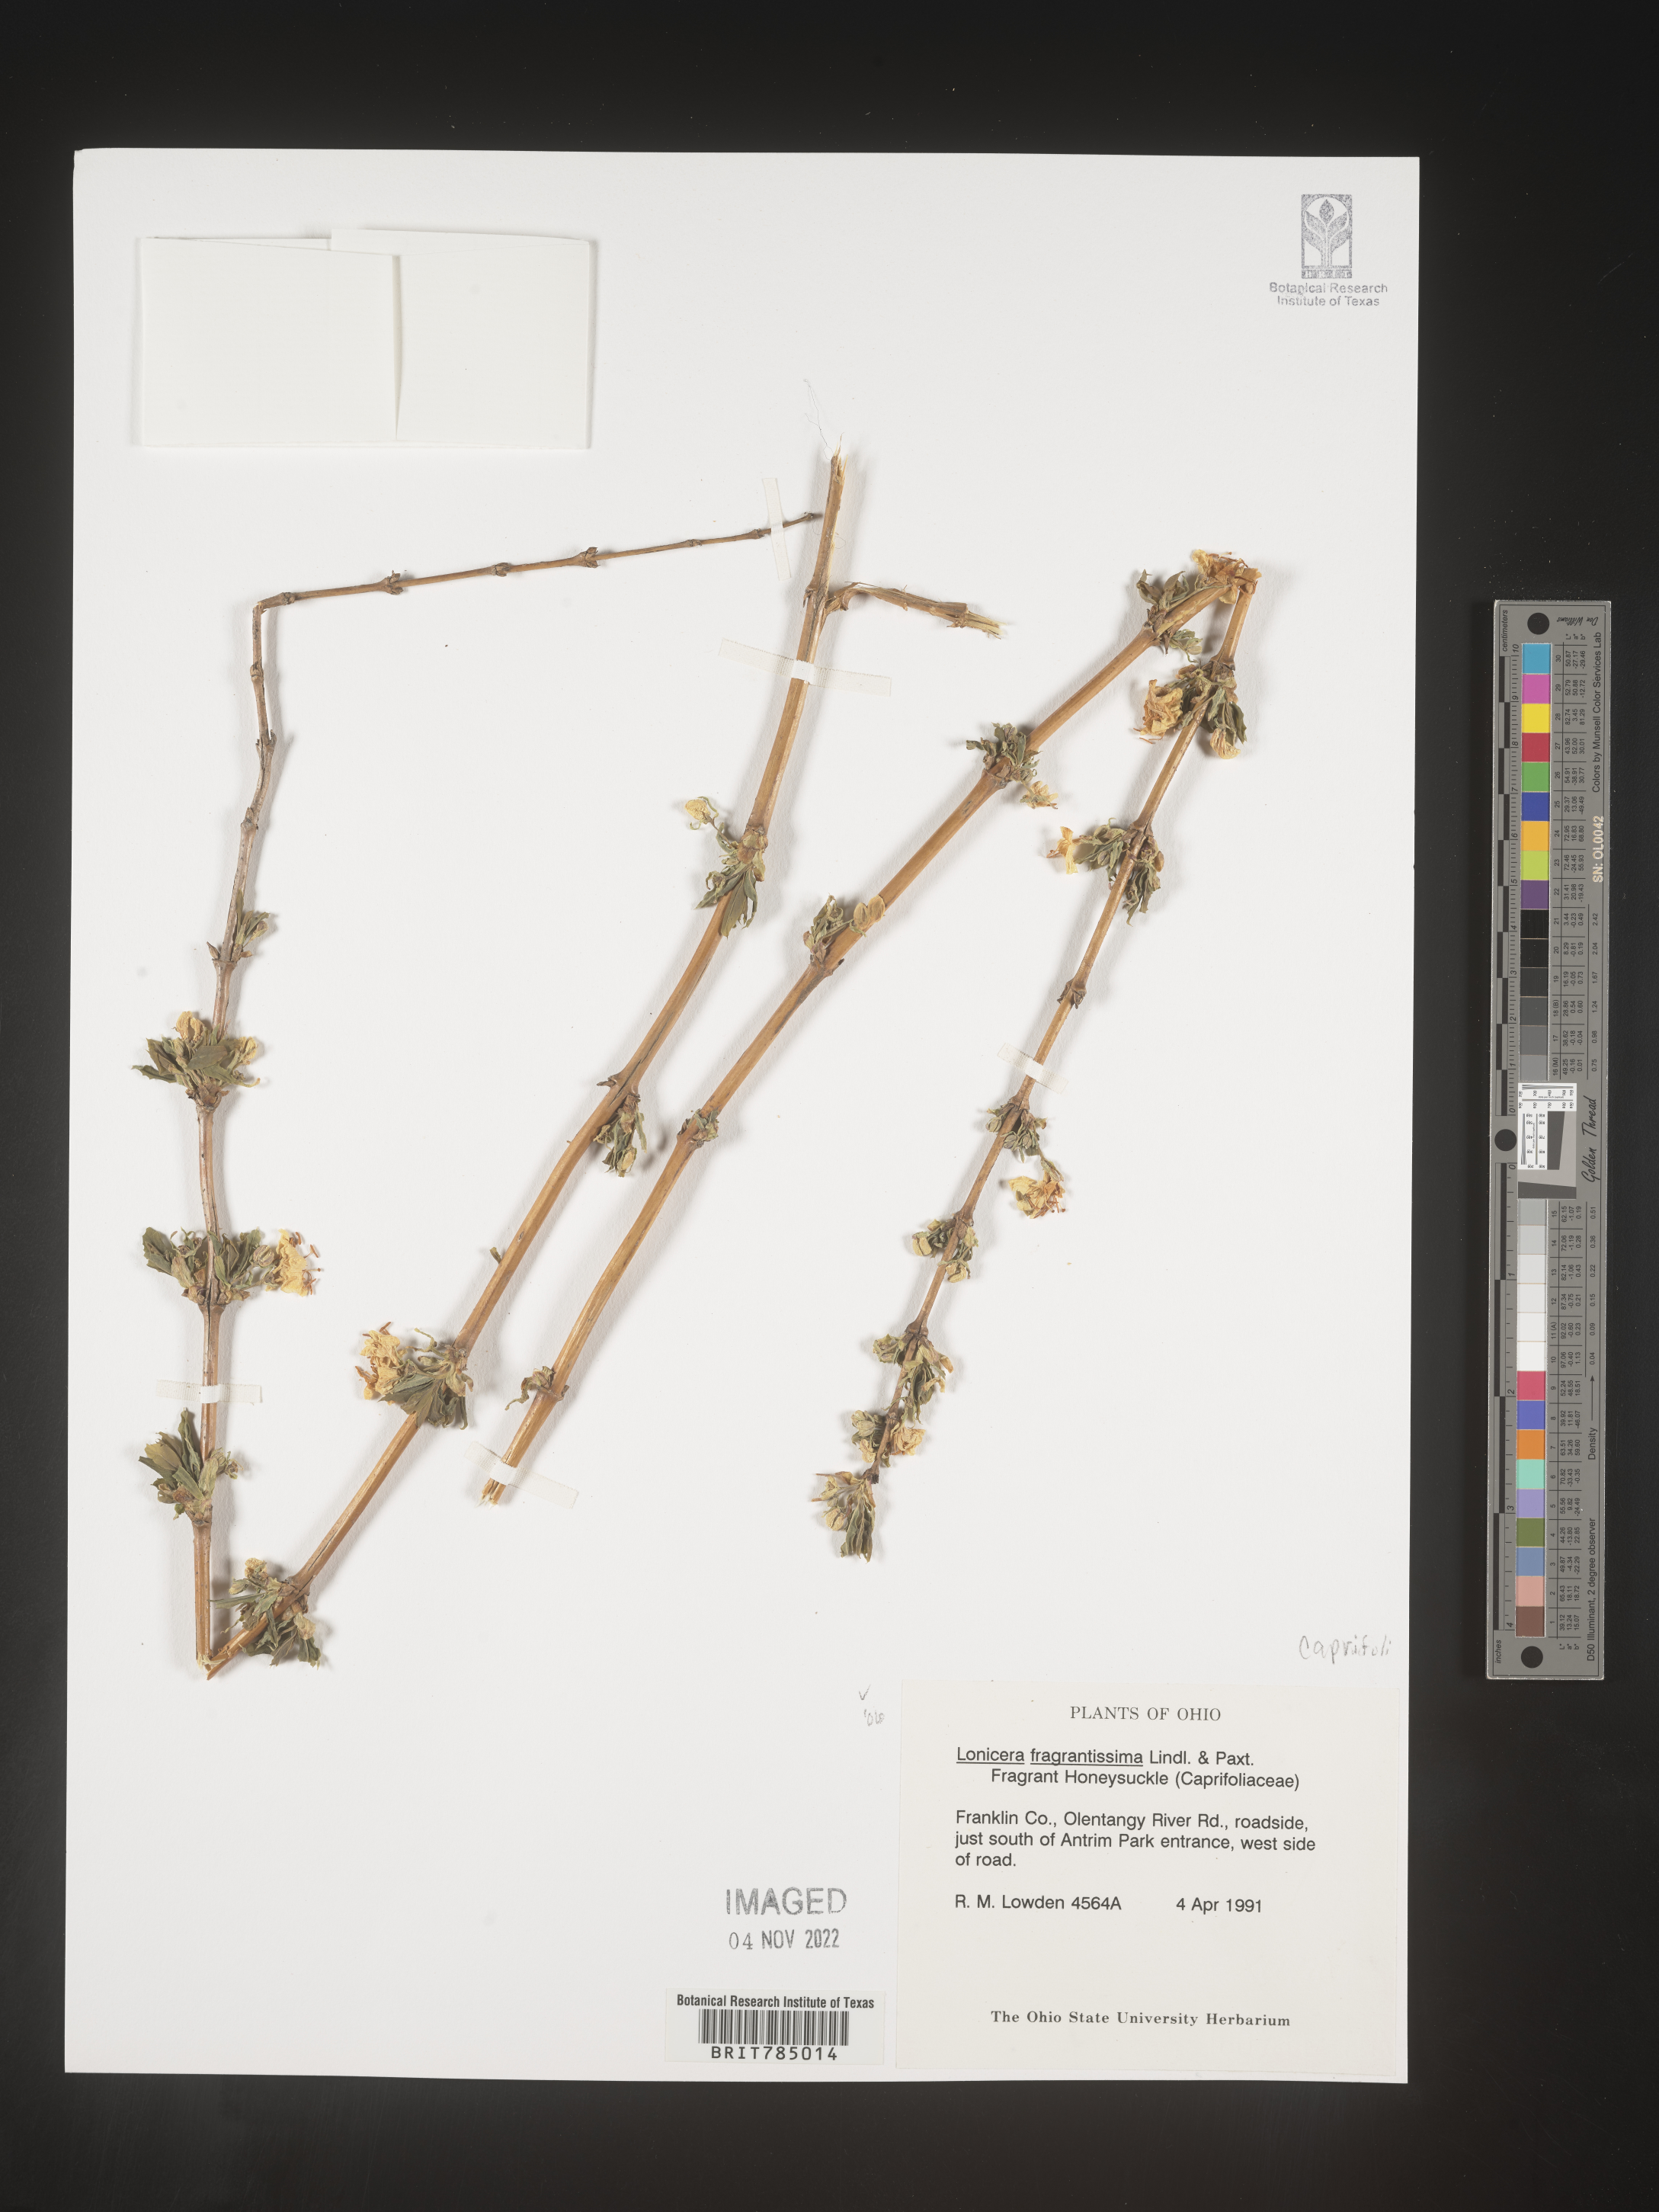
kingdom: Plantae
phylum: Tracheophyta
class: Magnoliopsida
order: Dipsacales
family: Caprifoliaceae
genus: Lonicera
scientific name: Lonicera
